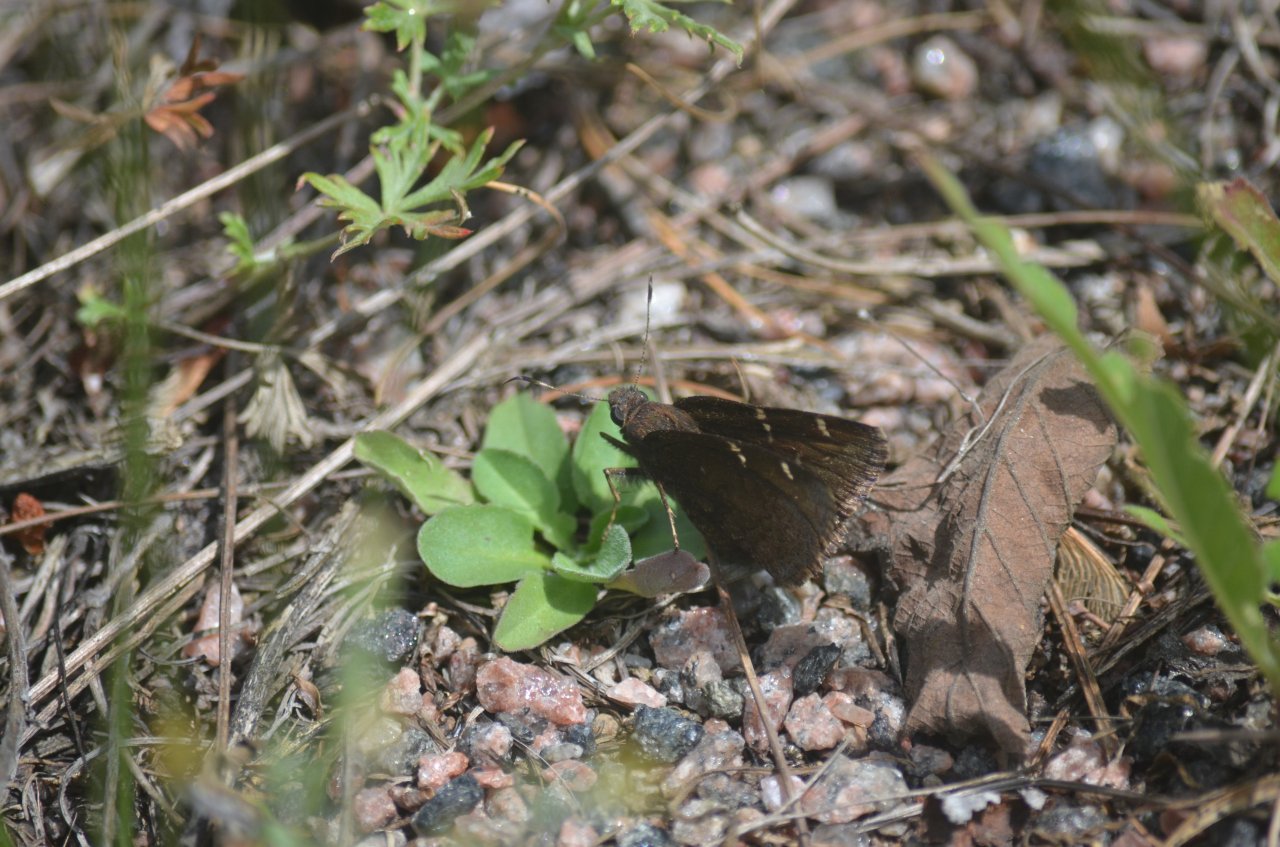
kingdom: Animalia
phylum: Arthropoda
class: Insecta
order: Lepidoptera
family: Hesperiidae
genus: Autochton
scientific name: Autochton
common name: Northern Cloudywing
